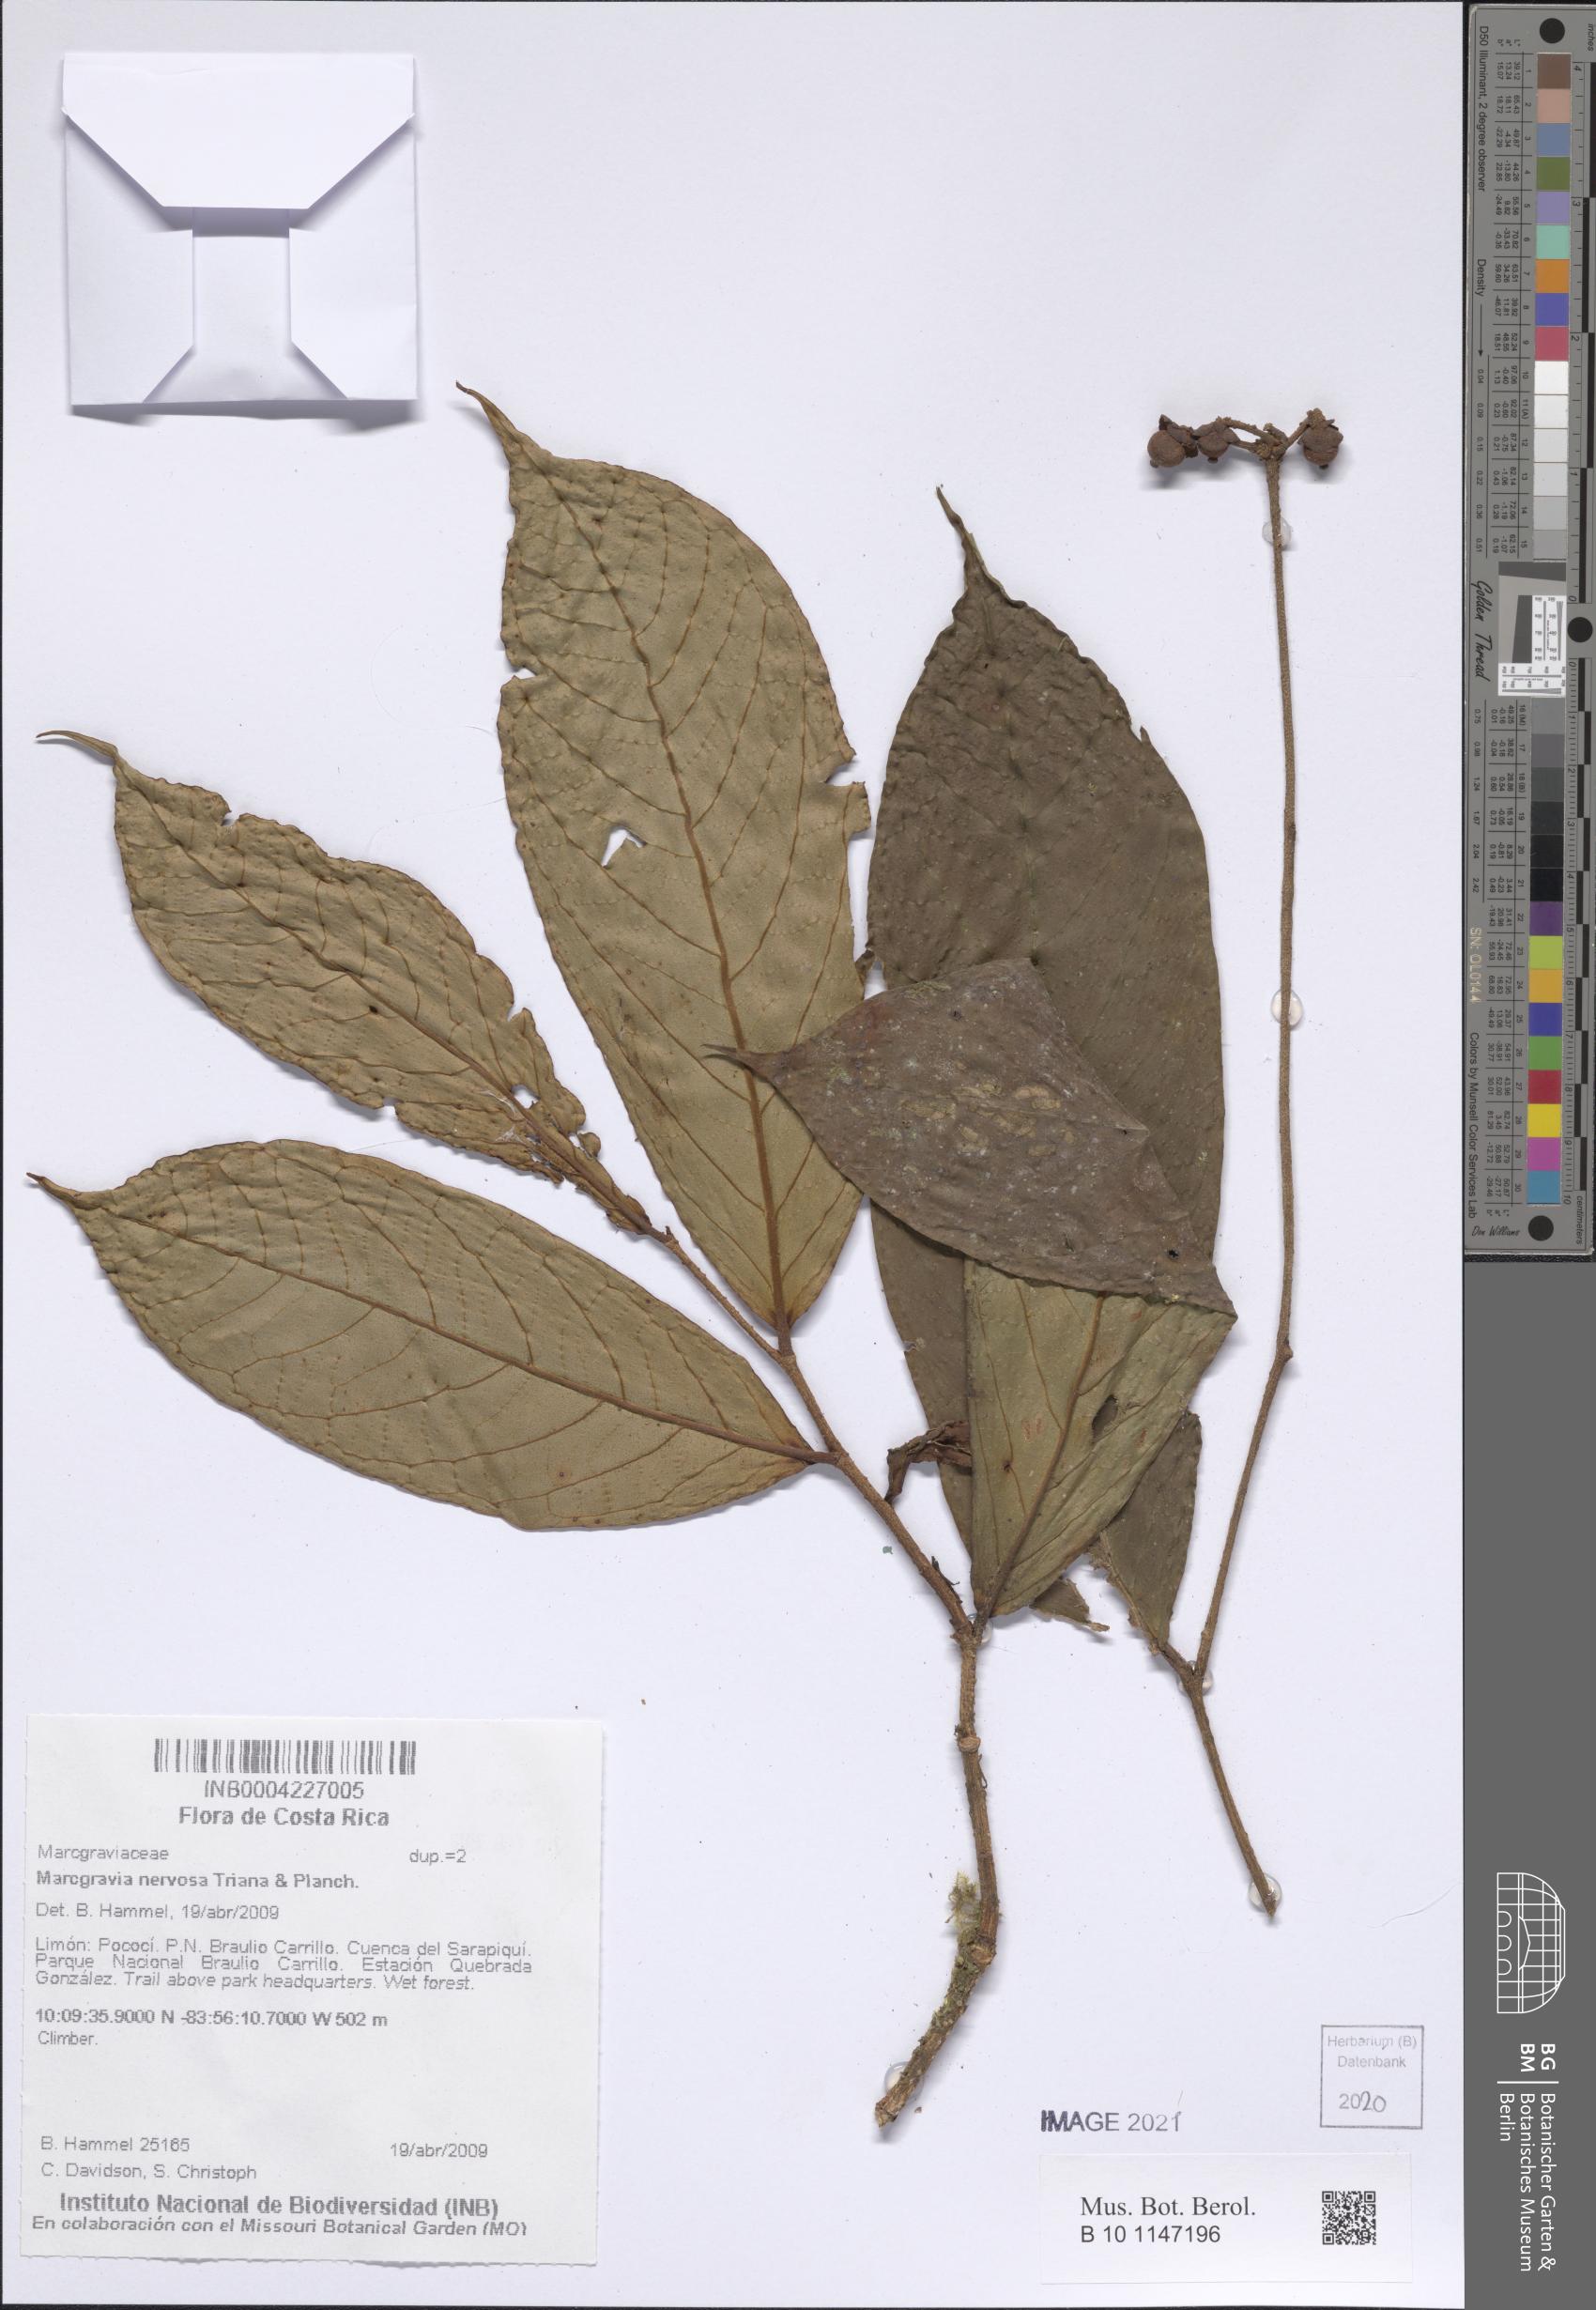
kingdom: Plantae
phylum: Tracheophyta
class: Magnoliopsida
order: Ericales
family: Marcgraviaceae
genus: Marcgravia
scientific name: Marcgravia nervosa
